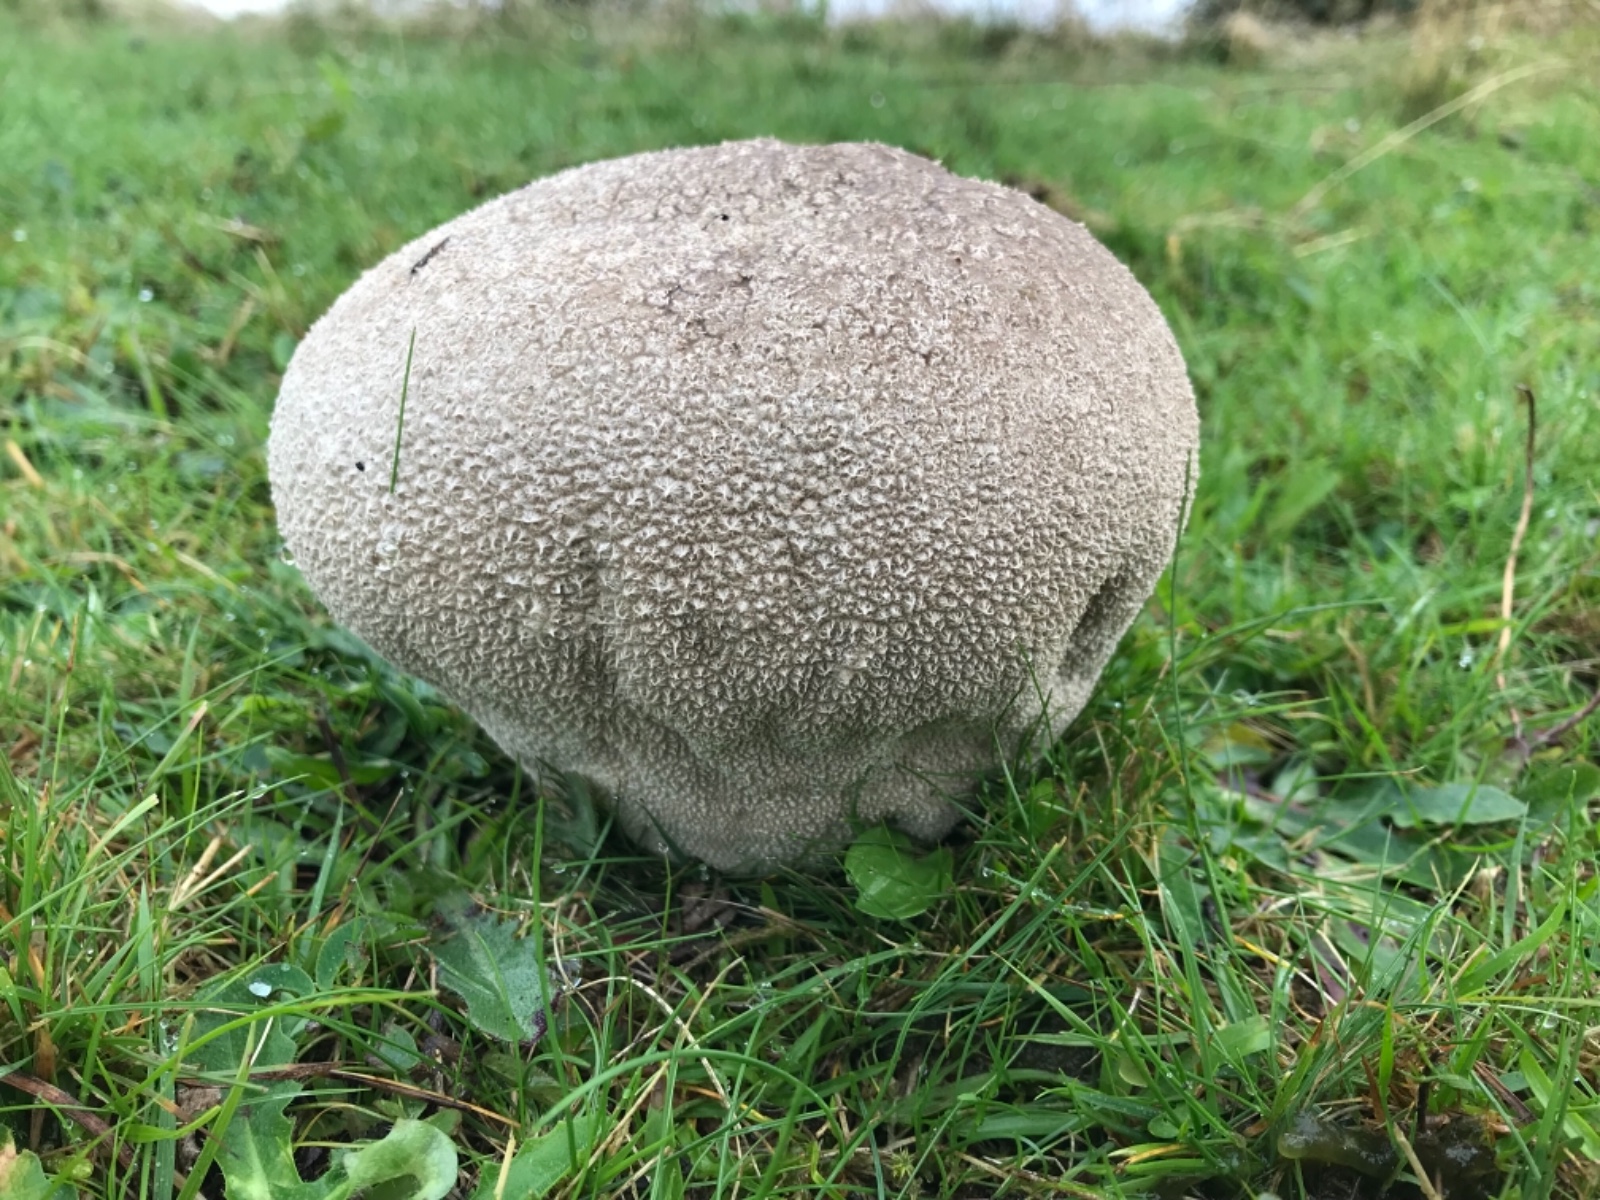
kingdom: Fungi
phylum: Basidiomycota
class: Agaricomycetes
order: Agaricales
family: Lycoperdaceae
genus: Bovistella
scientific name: Bovistella utriformis
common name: skællet støvbold
